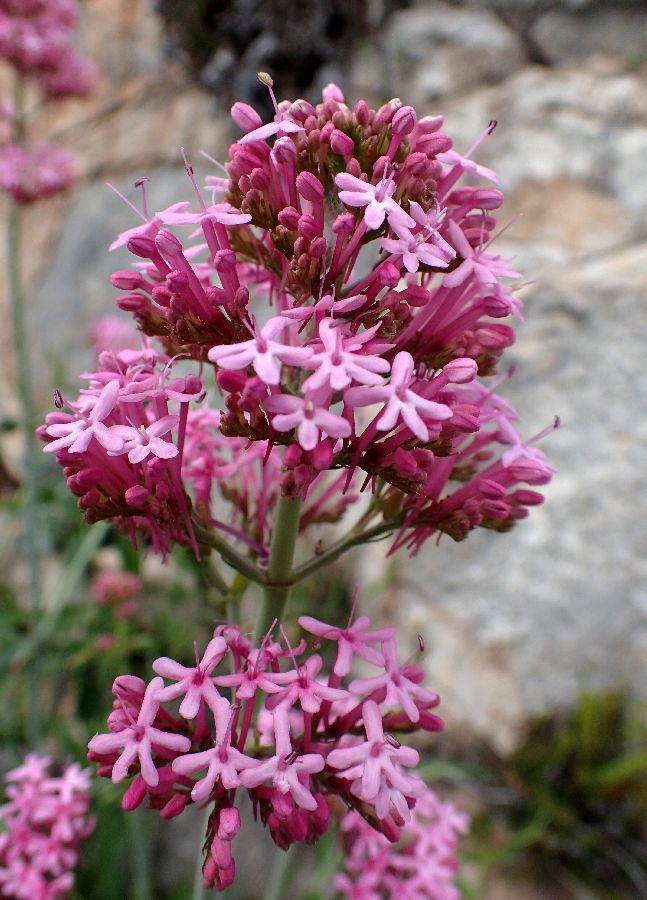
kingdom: Plantae
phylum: Tracheophyta
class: Magnoliopsida
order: Dipsacales
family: Caprifoliaceae
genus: Centranthus
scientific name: Centranthus ruber
